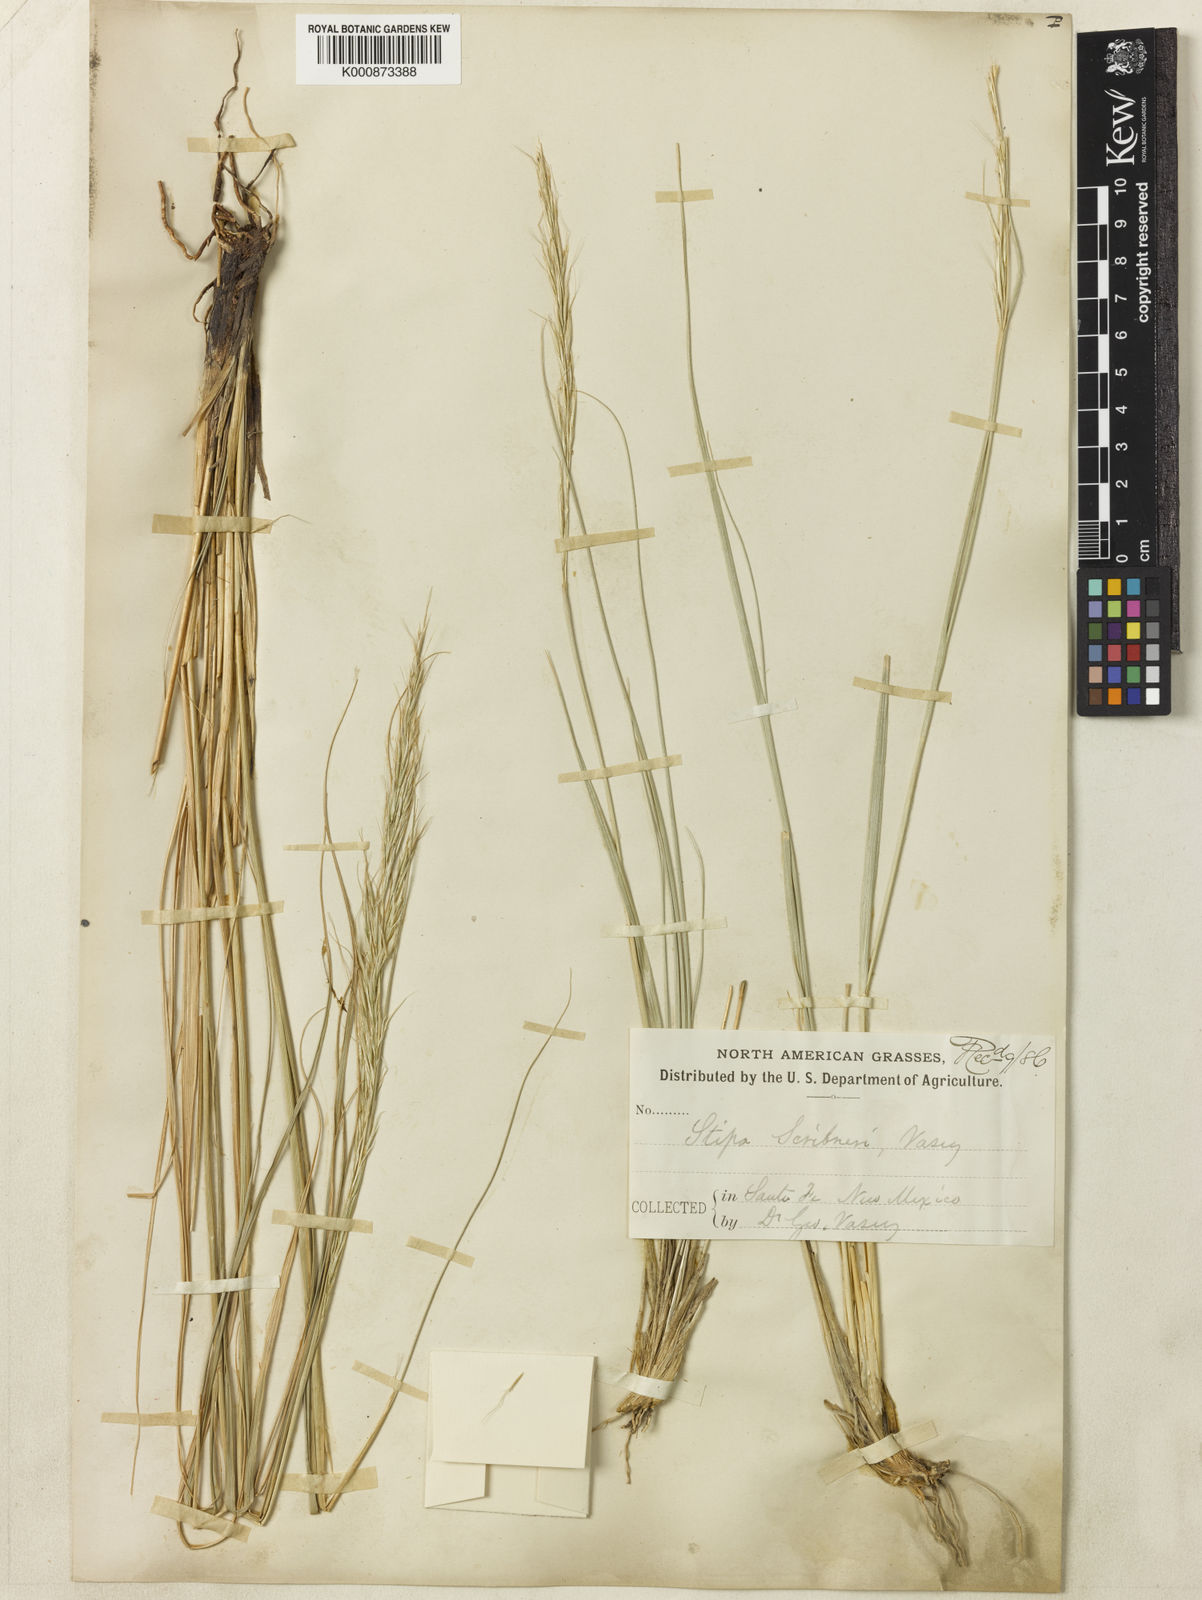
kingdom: Plantae
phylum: Tracheophyta
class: Liliopsida
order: Poales
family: Poaceae
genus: Eriocoma
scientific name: Eriocoma scribneri
